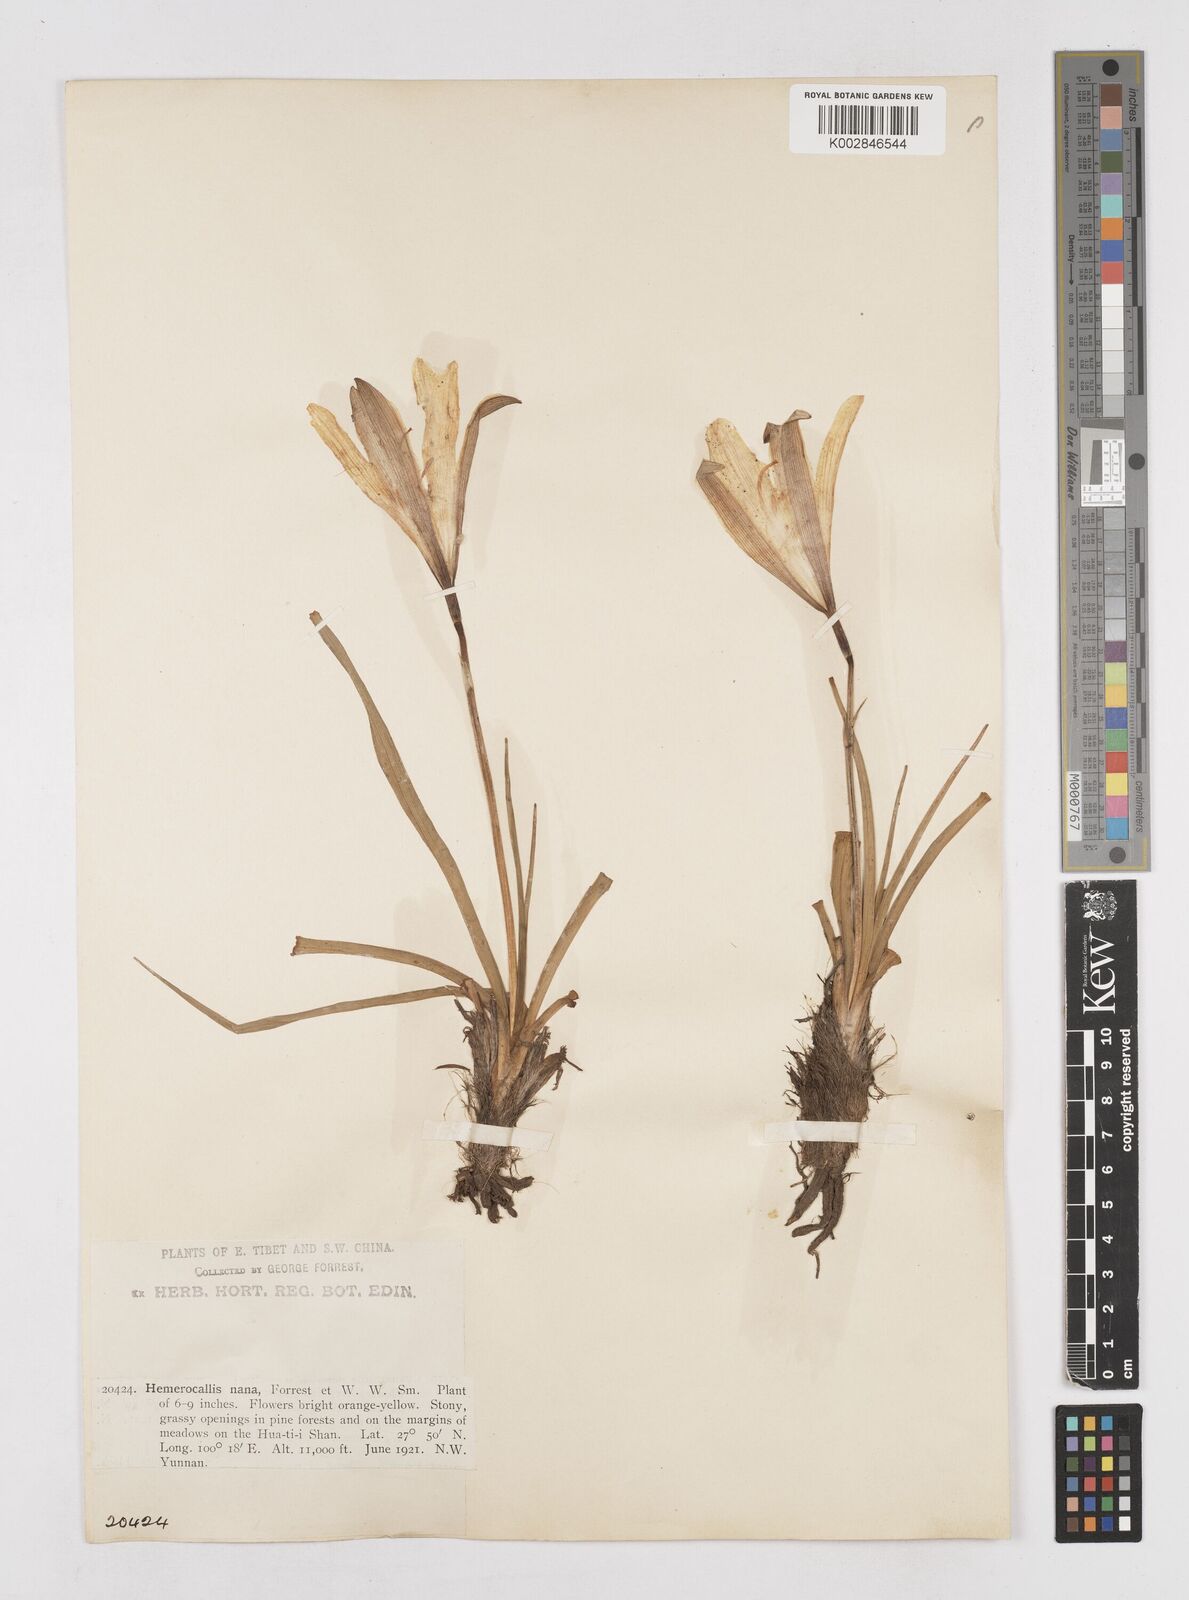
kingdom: Plantae
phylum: Tracheophyta
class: Liliopsida
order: Asparagales
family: Asphodelaceae
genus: Hemerocallis
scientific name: Hemerocallis nana
